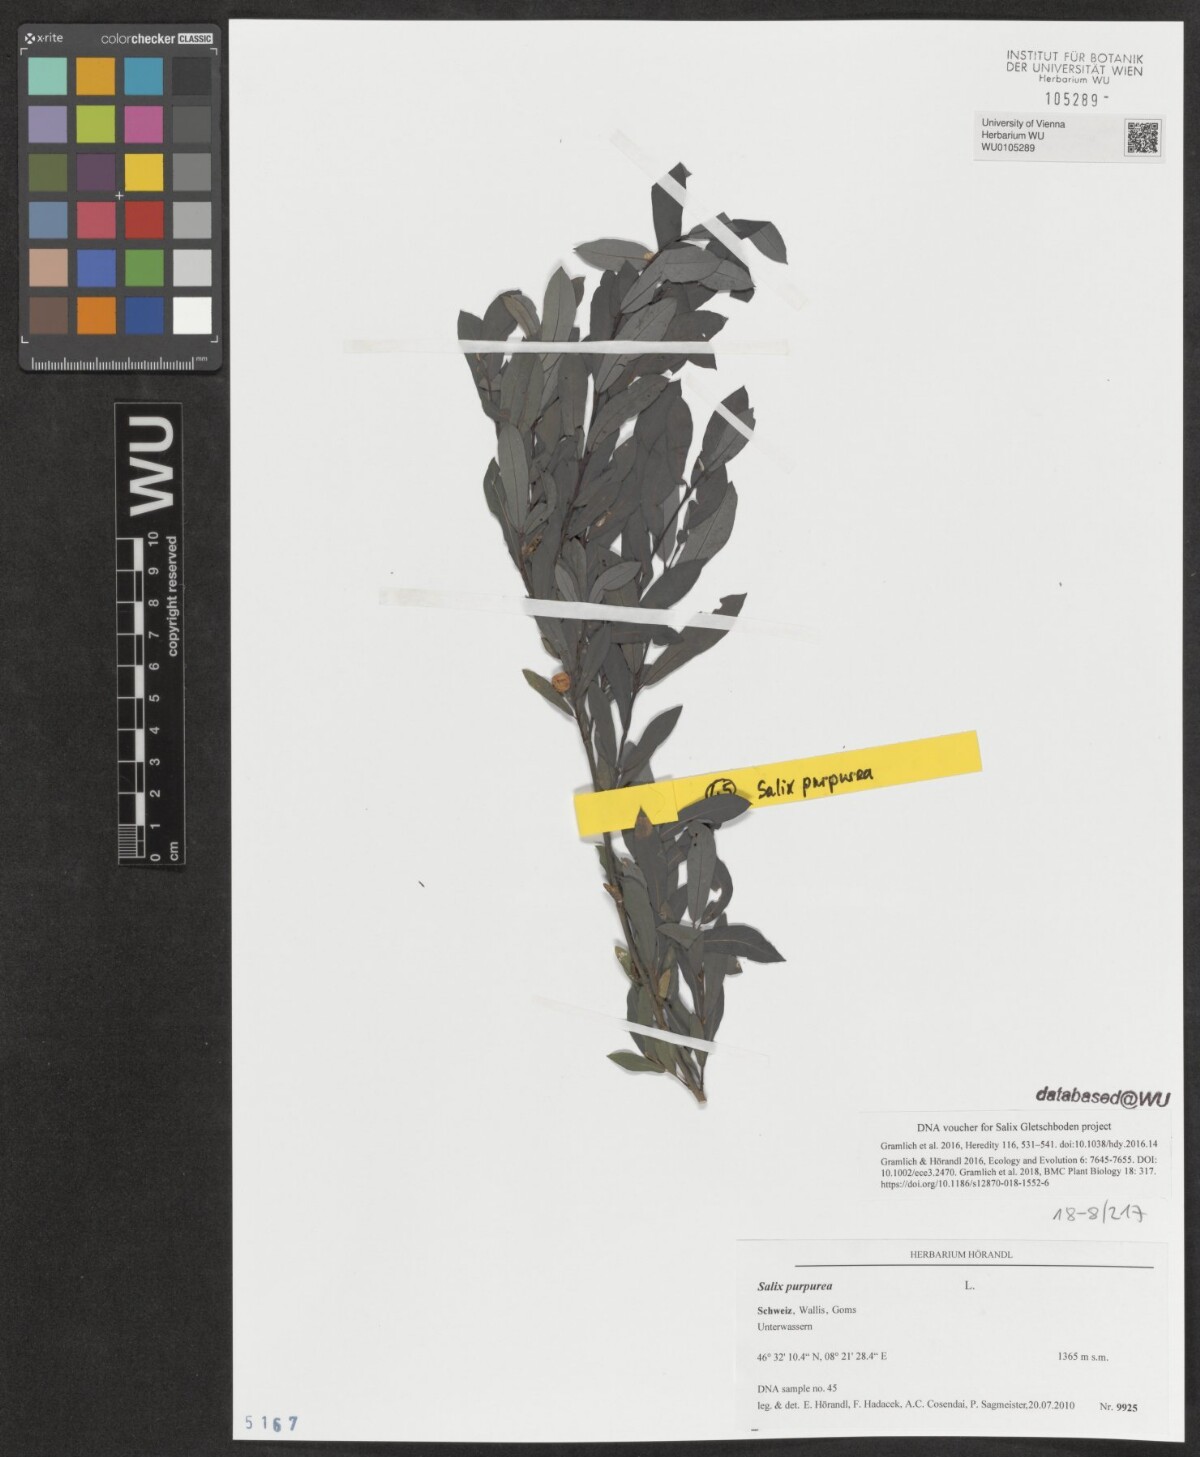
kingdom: Plantae
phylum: Tracheophyta
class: Magnoliopsida
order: Malpighiales
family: Salicaceae
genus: Salix
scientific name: Salix purpurea
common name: Purple willow
